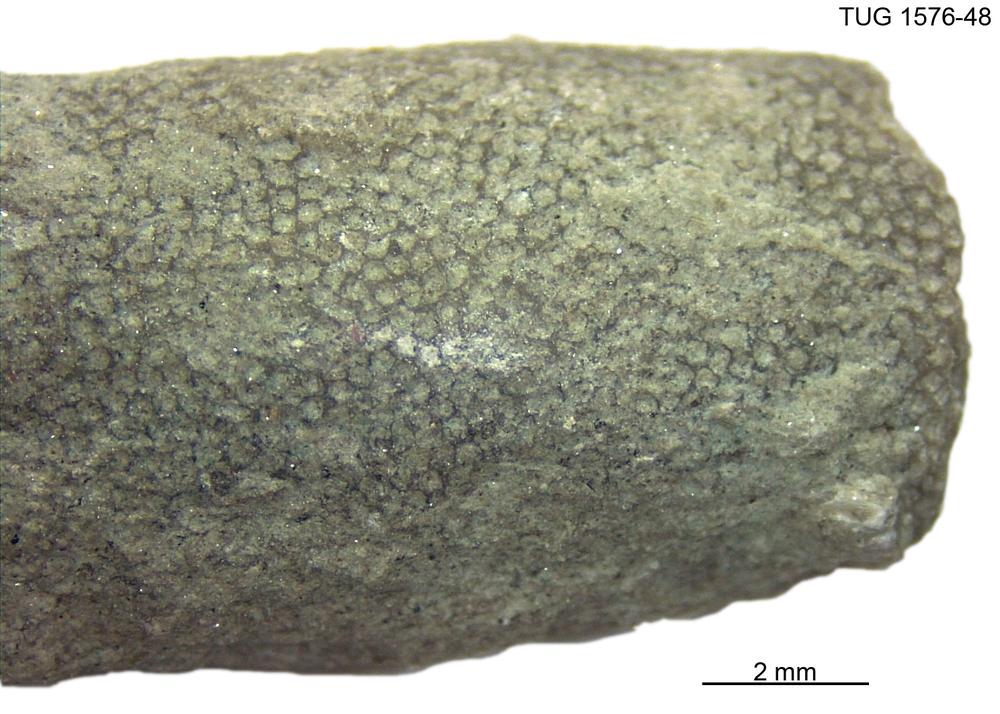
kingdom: Animalia
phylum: Bryozoa
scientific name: Bryozoa
